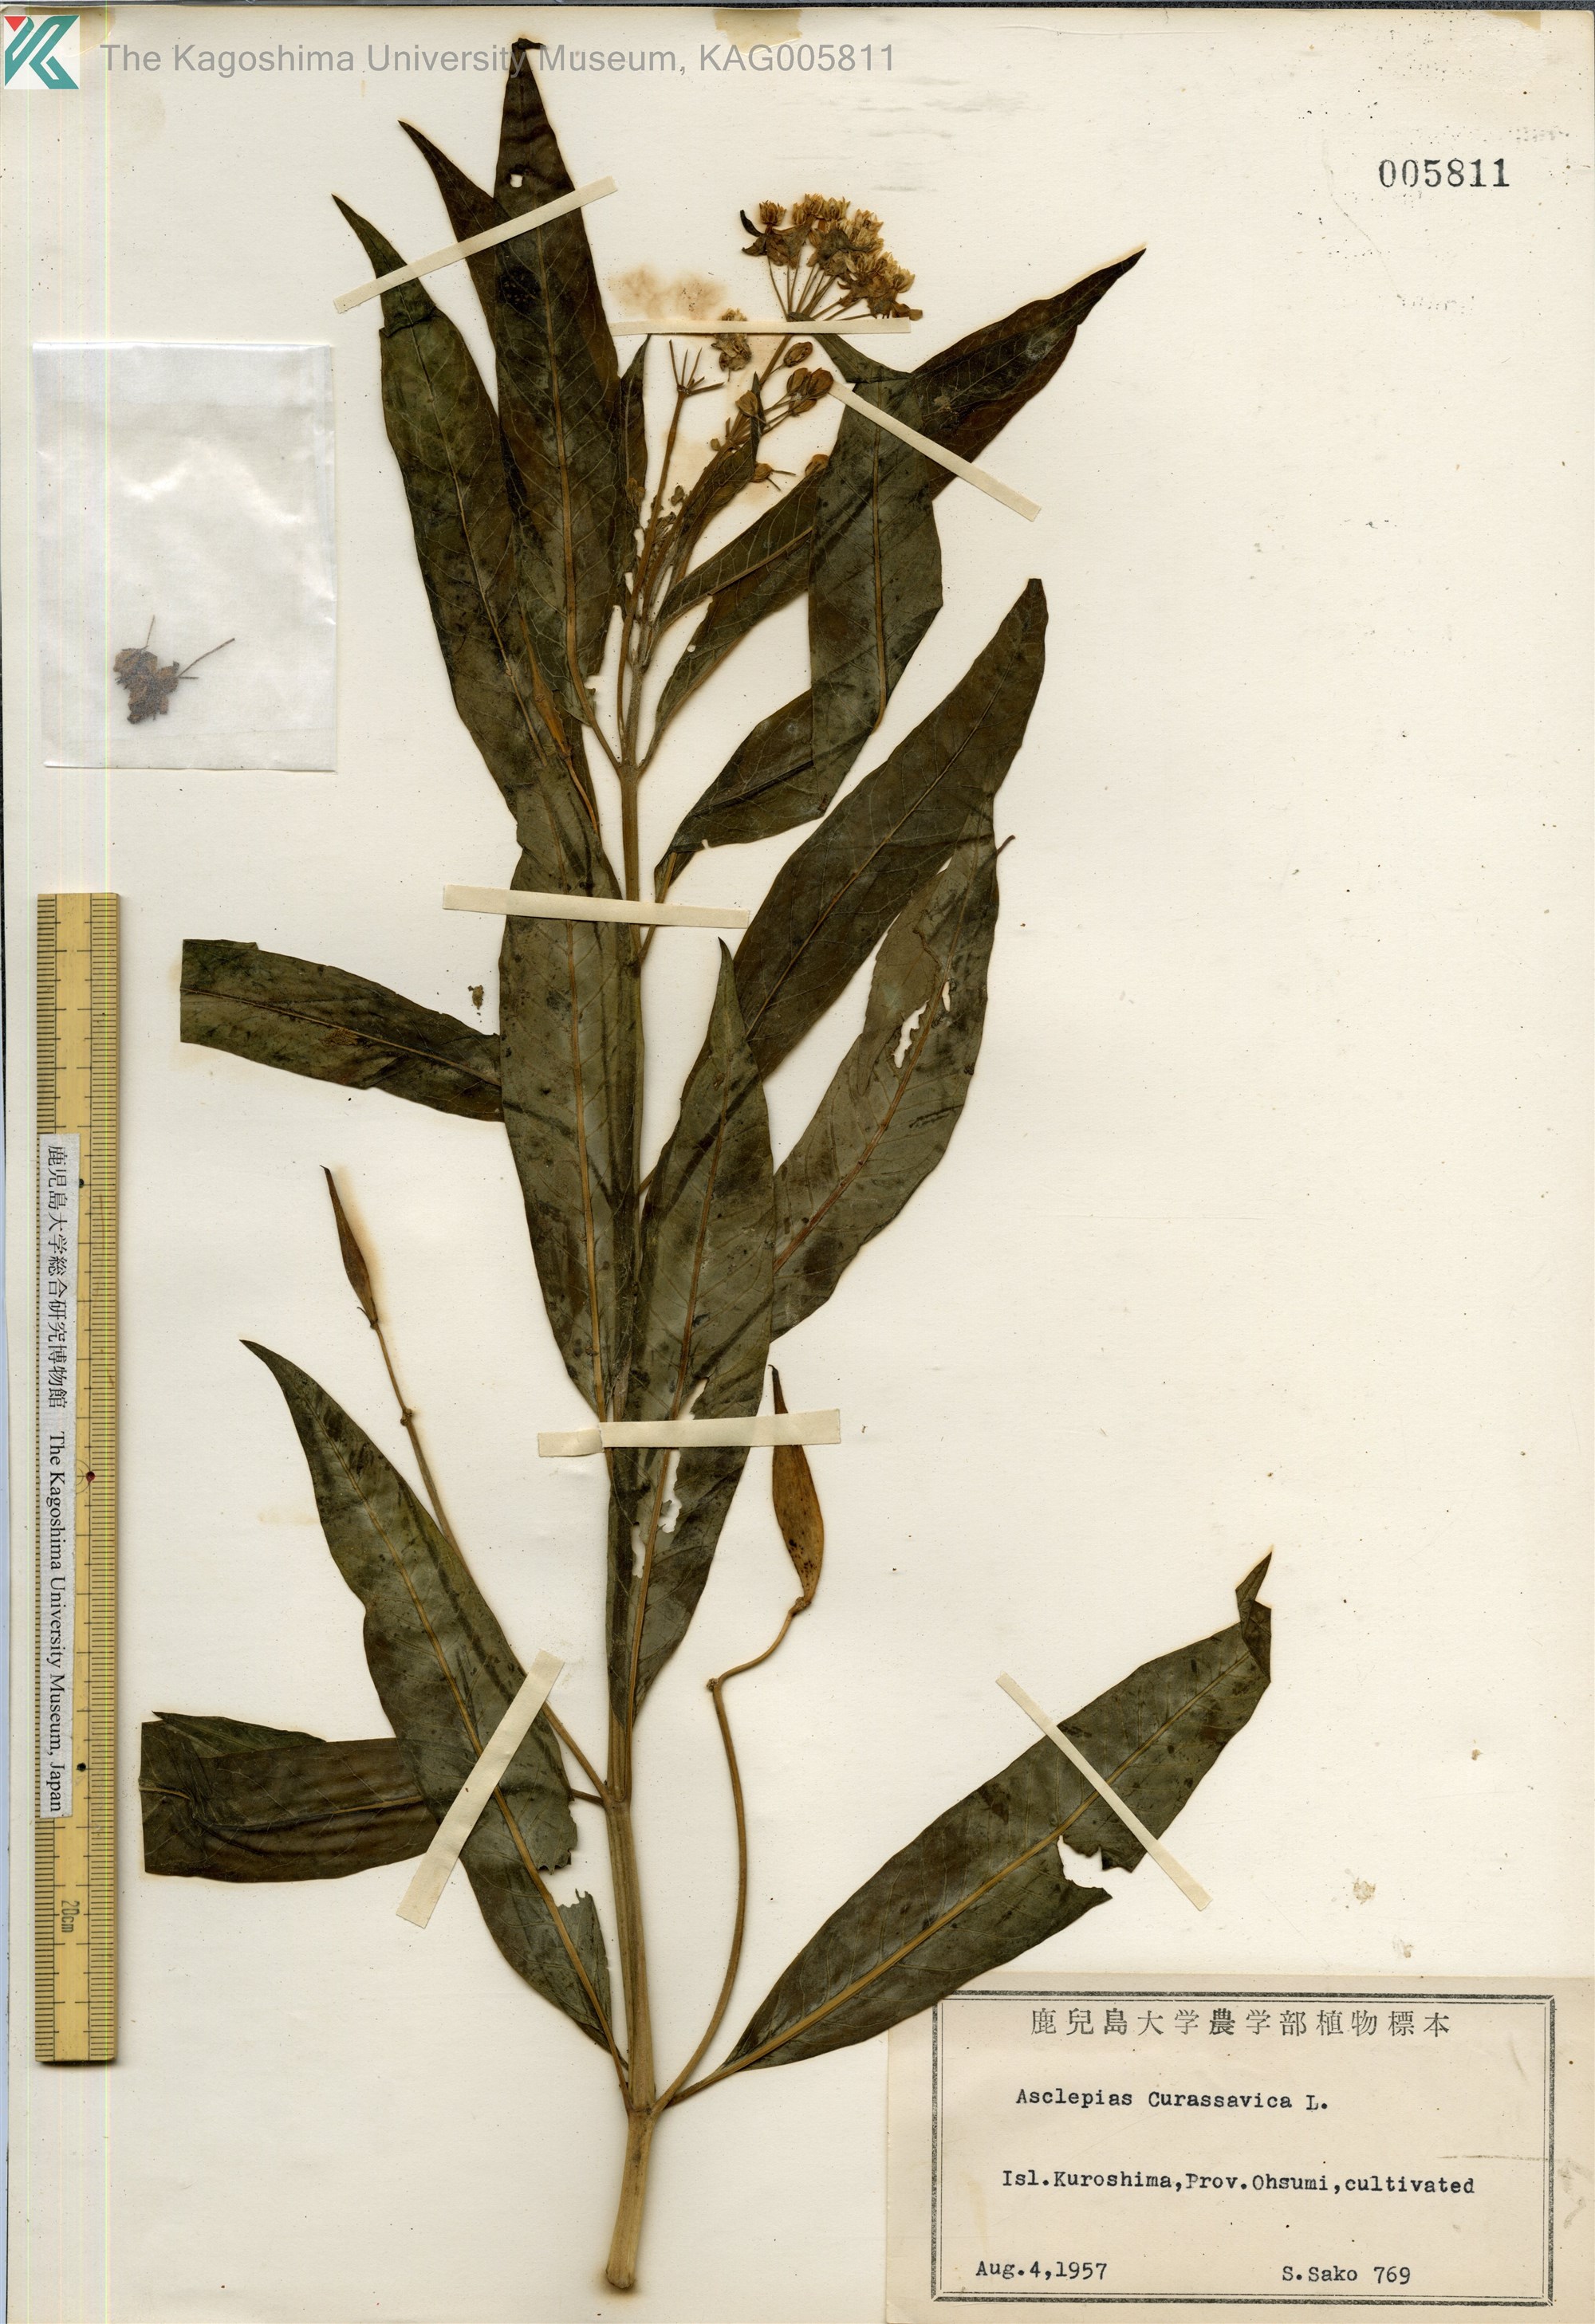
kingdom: Plantae
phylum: Tracheophyta
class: Magnoliopsida
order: Gentianales
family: Apocynaceae
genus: Asclepias
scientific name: Asclepias
